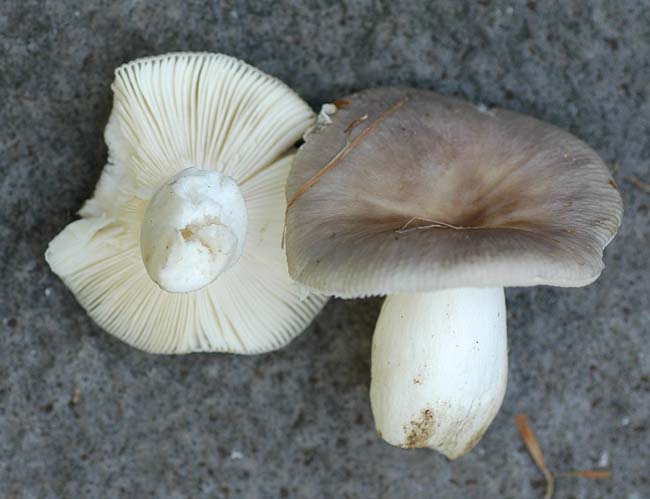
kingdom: Fungi
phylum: Basidiomycota
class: Agaricomycetes
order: Russulales
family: Russulaceae
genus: Russula
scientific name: Russula grisea
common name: grålig skørhat
